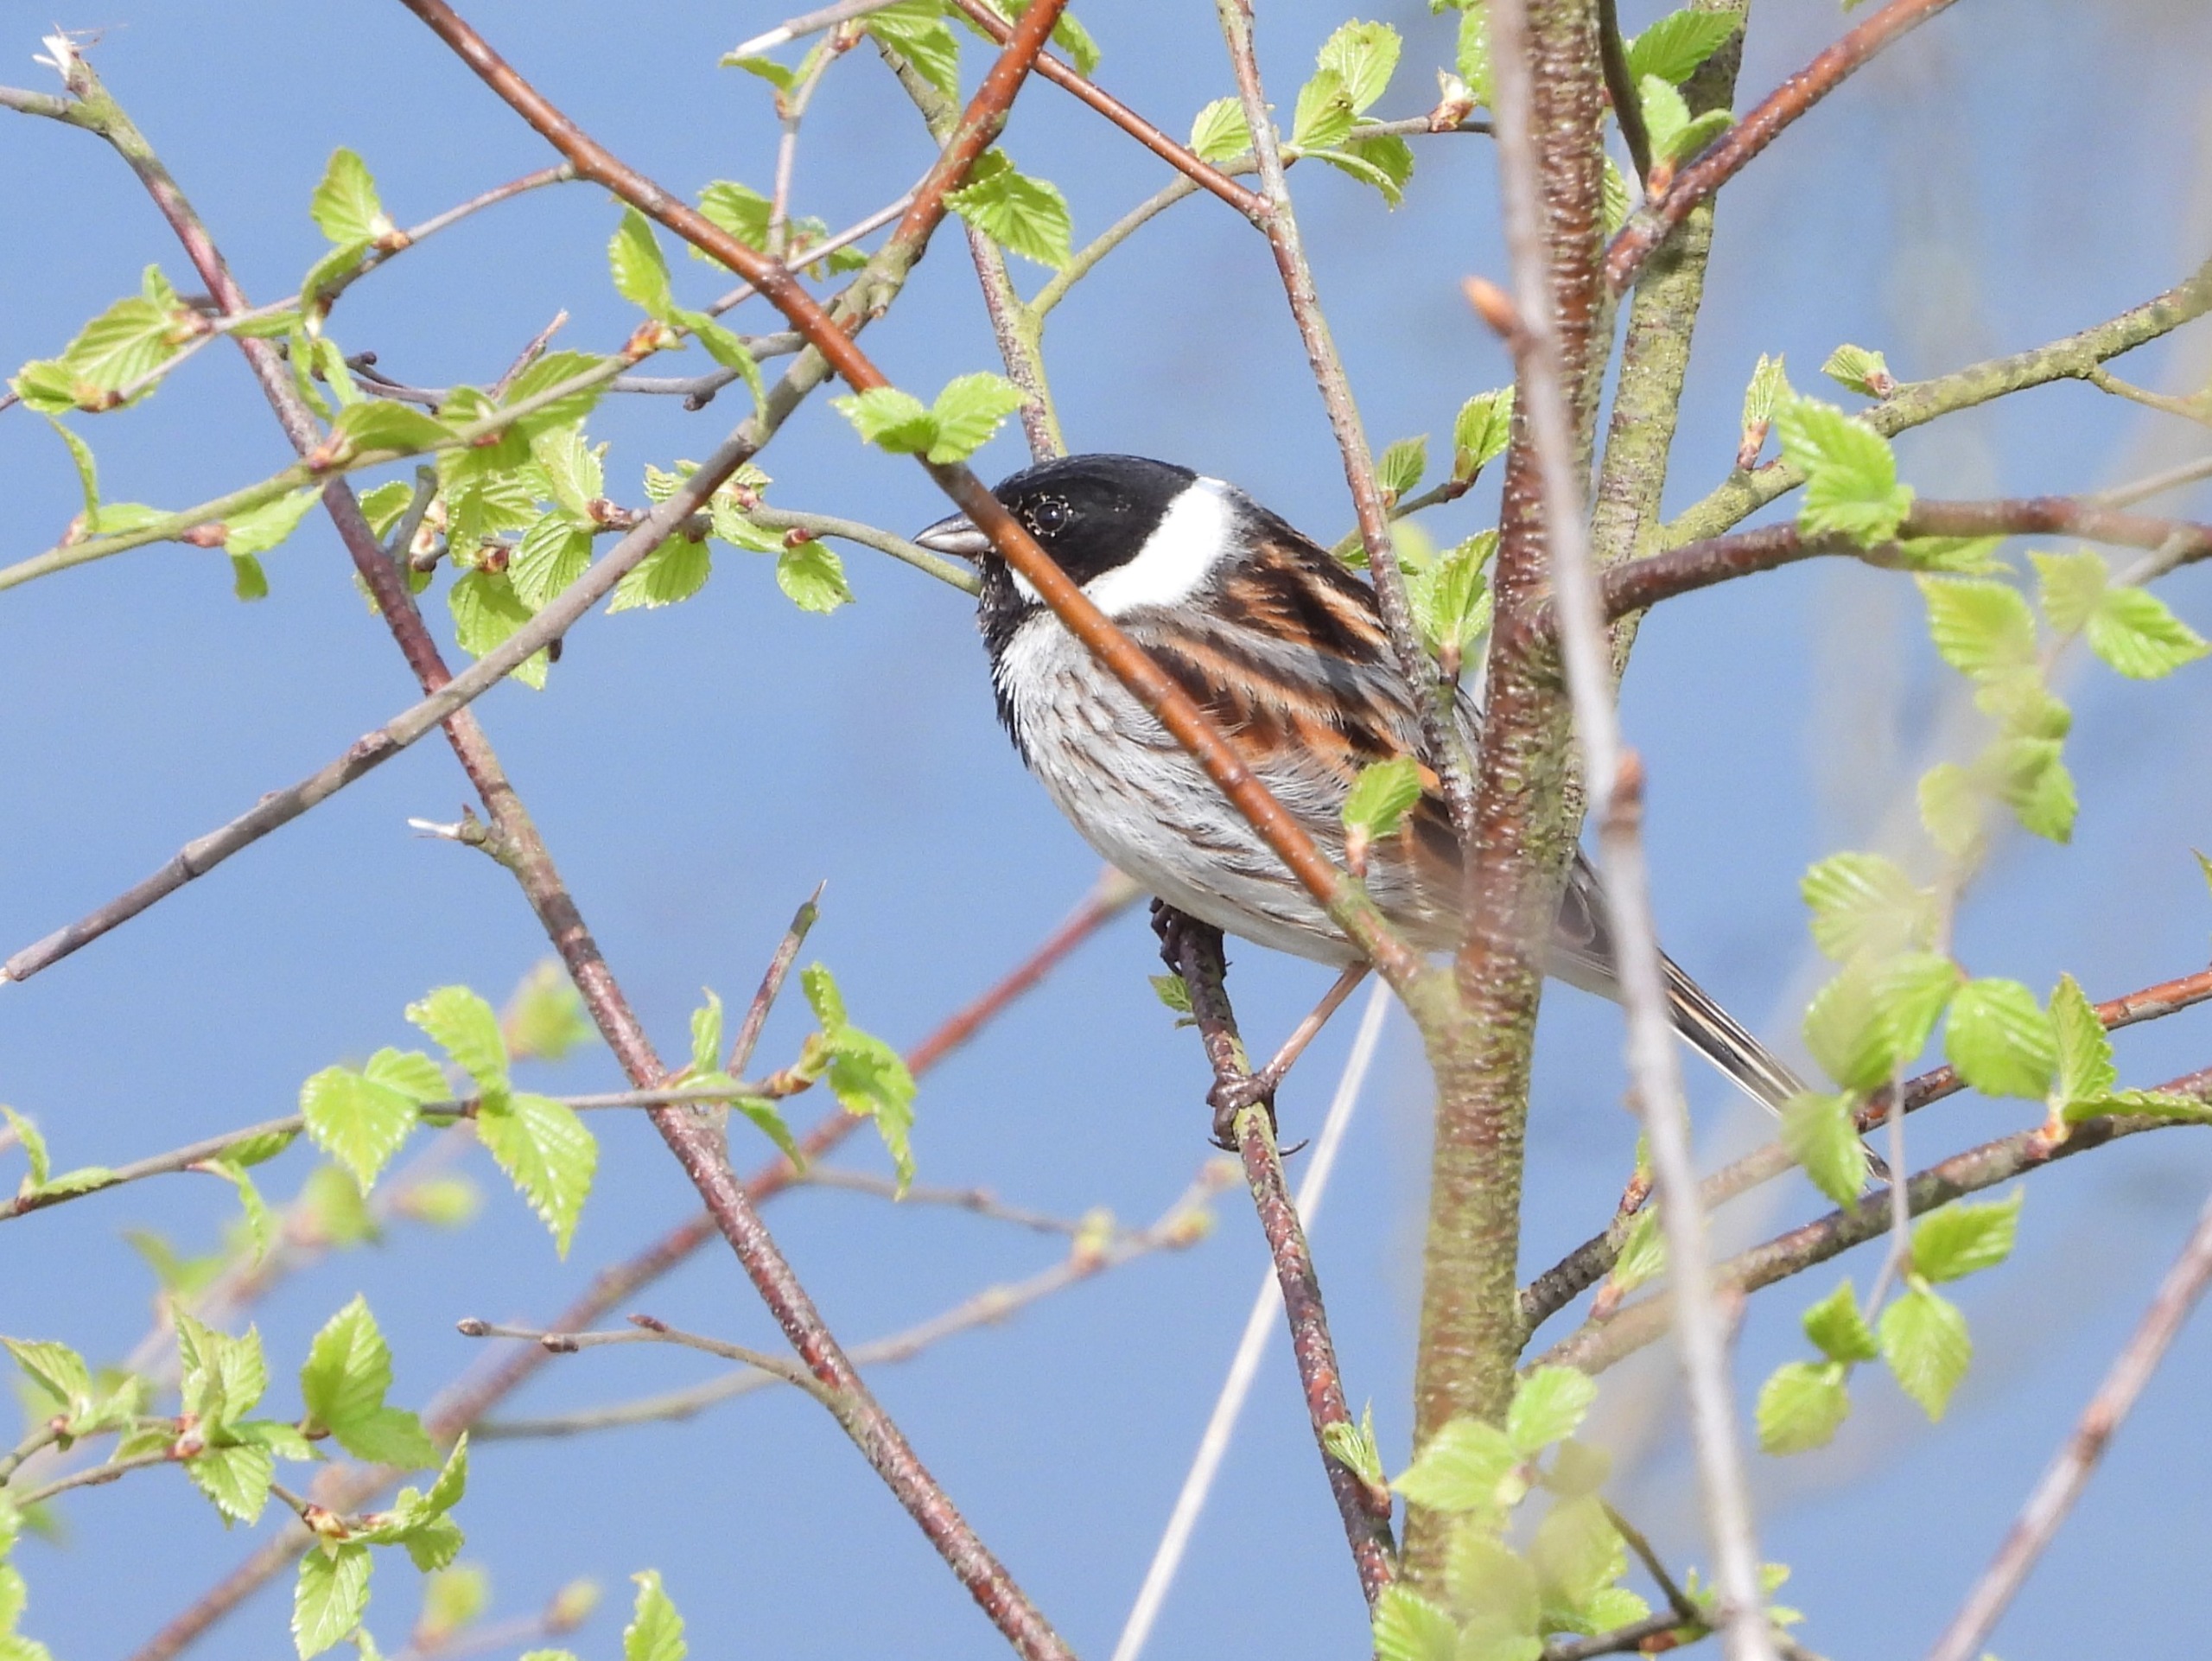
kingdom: Animalia
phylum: Chordata
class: Aves
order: Passeriformes
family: Emberizidae
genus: Emberiza
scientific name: Emberiza schoeniclus
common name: Rørspurv
